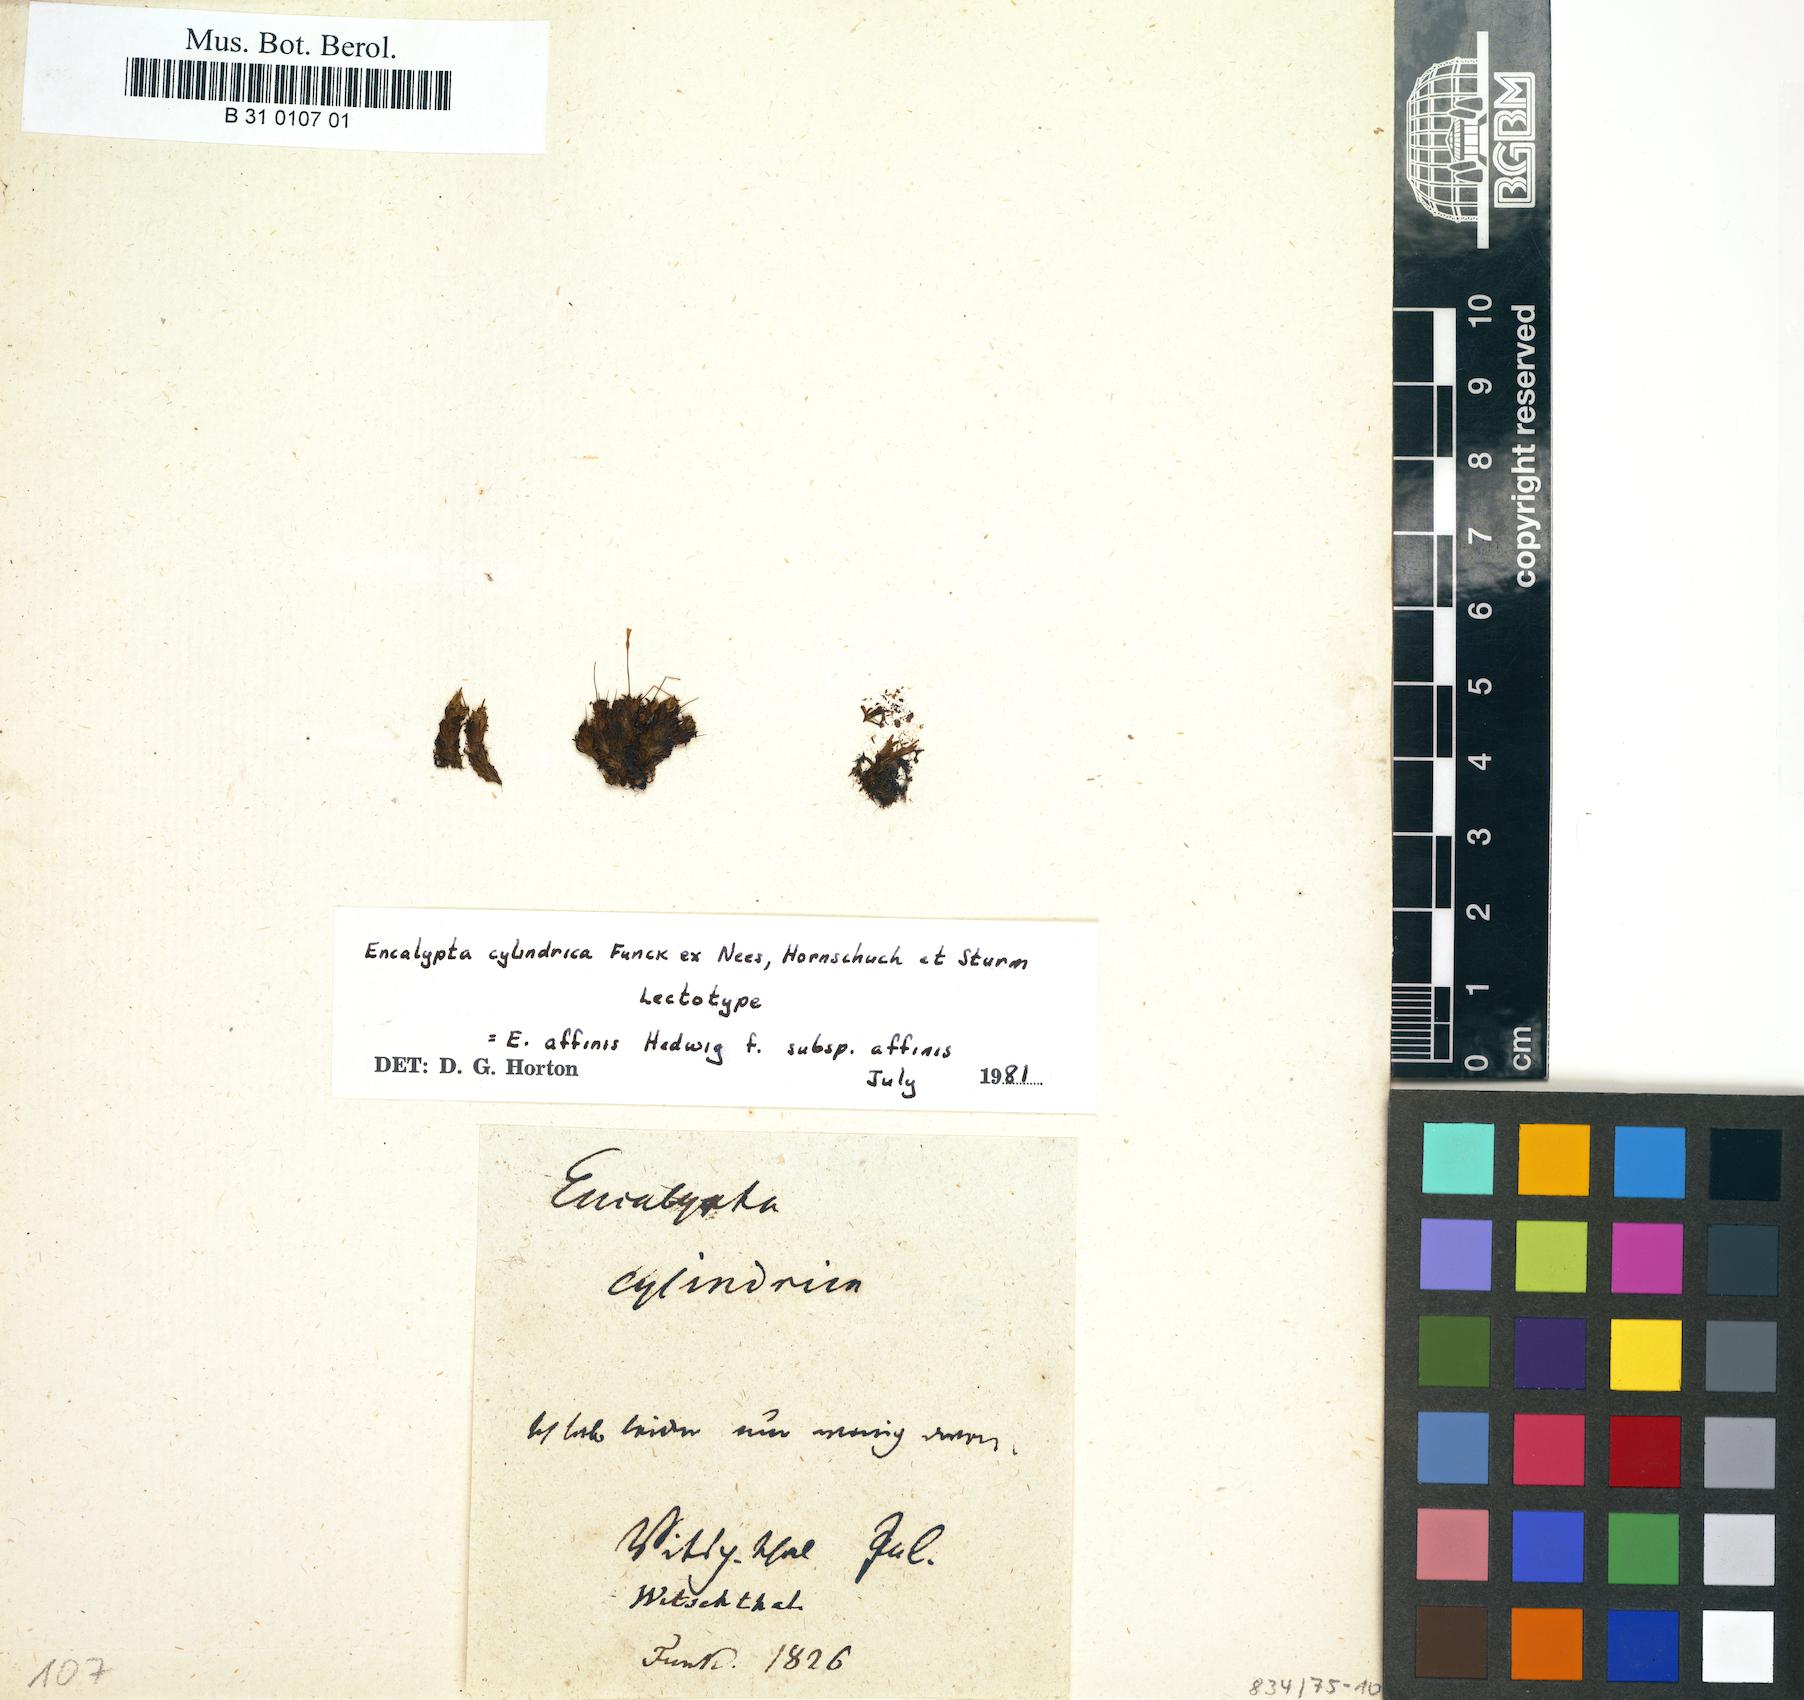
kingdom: Plantae
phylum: Bryophyta
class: Bryopsida
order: Encalyptales
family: Encalyptaceae
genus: Encalypta
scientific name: Encalypta affinis
